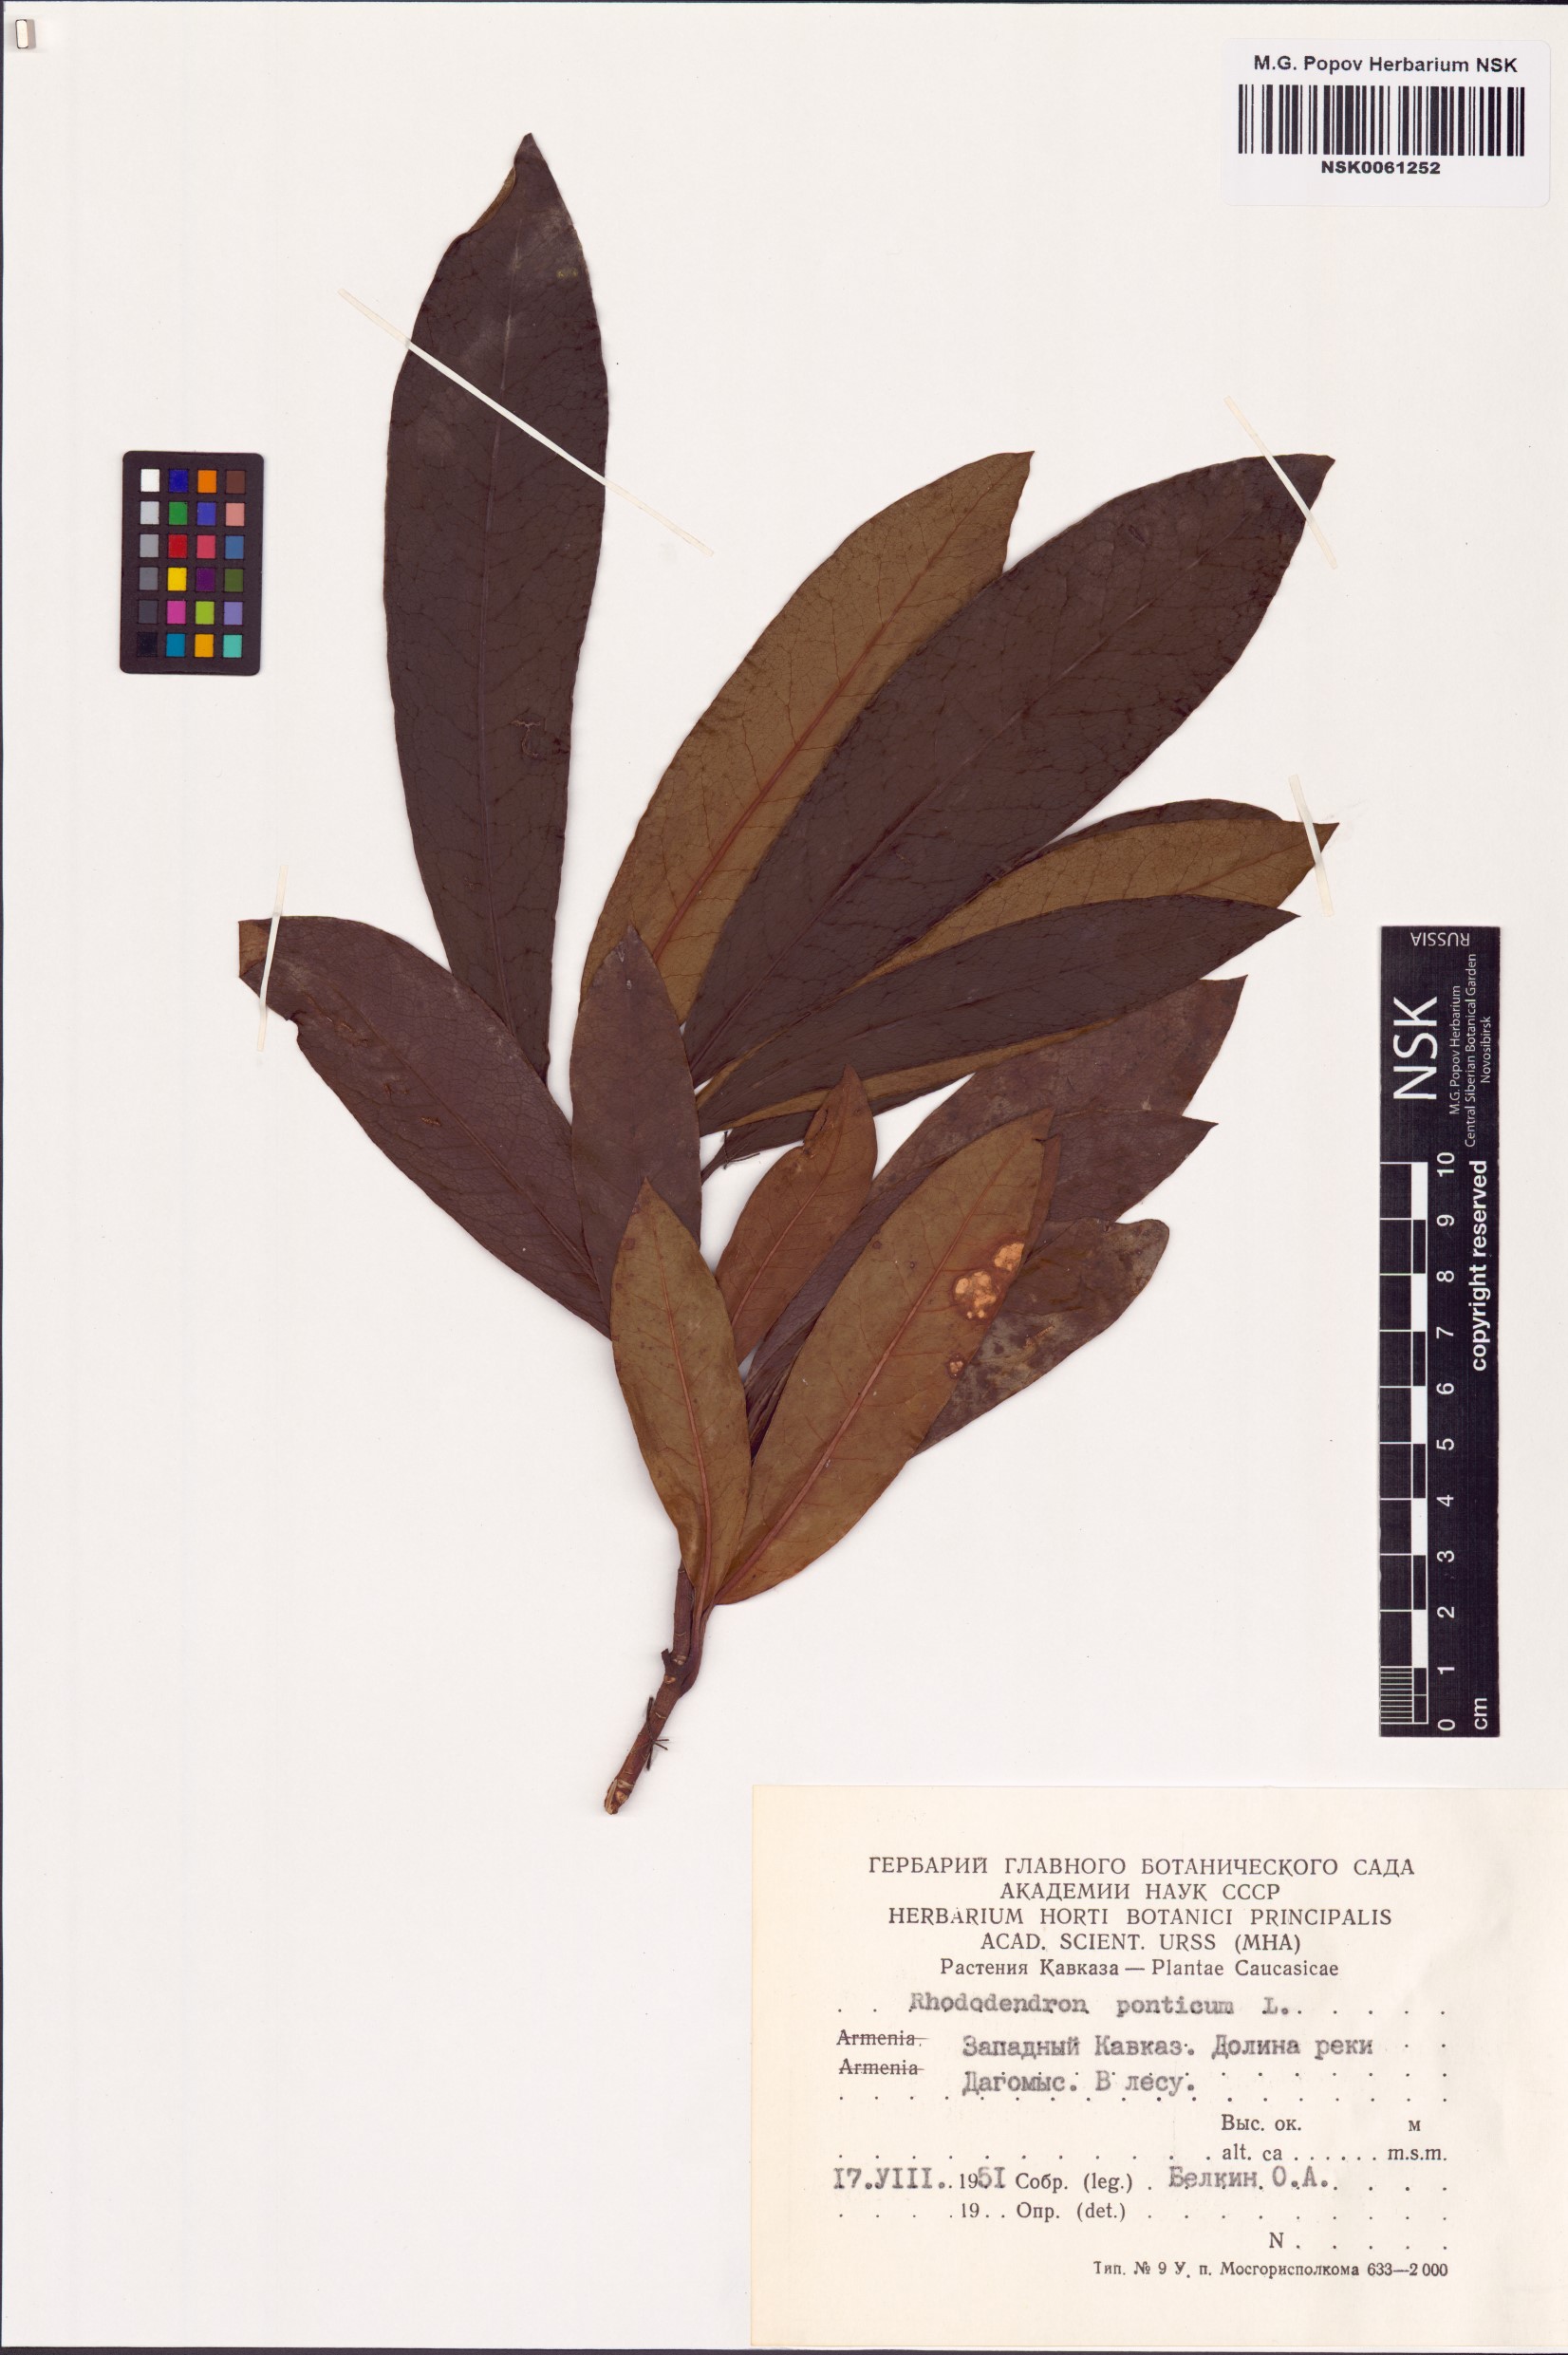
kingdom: Plantae
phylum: Tracheophyta
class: Magnoliopsida
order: Ericales
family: Ericaceae
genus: Rhododendron
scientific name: Rhododendron ponticum
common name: Rhododendron
